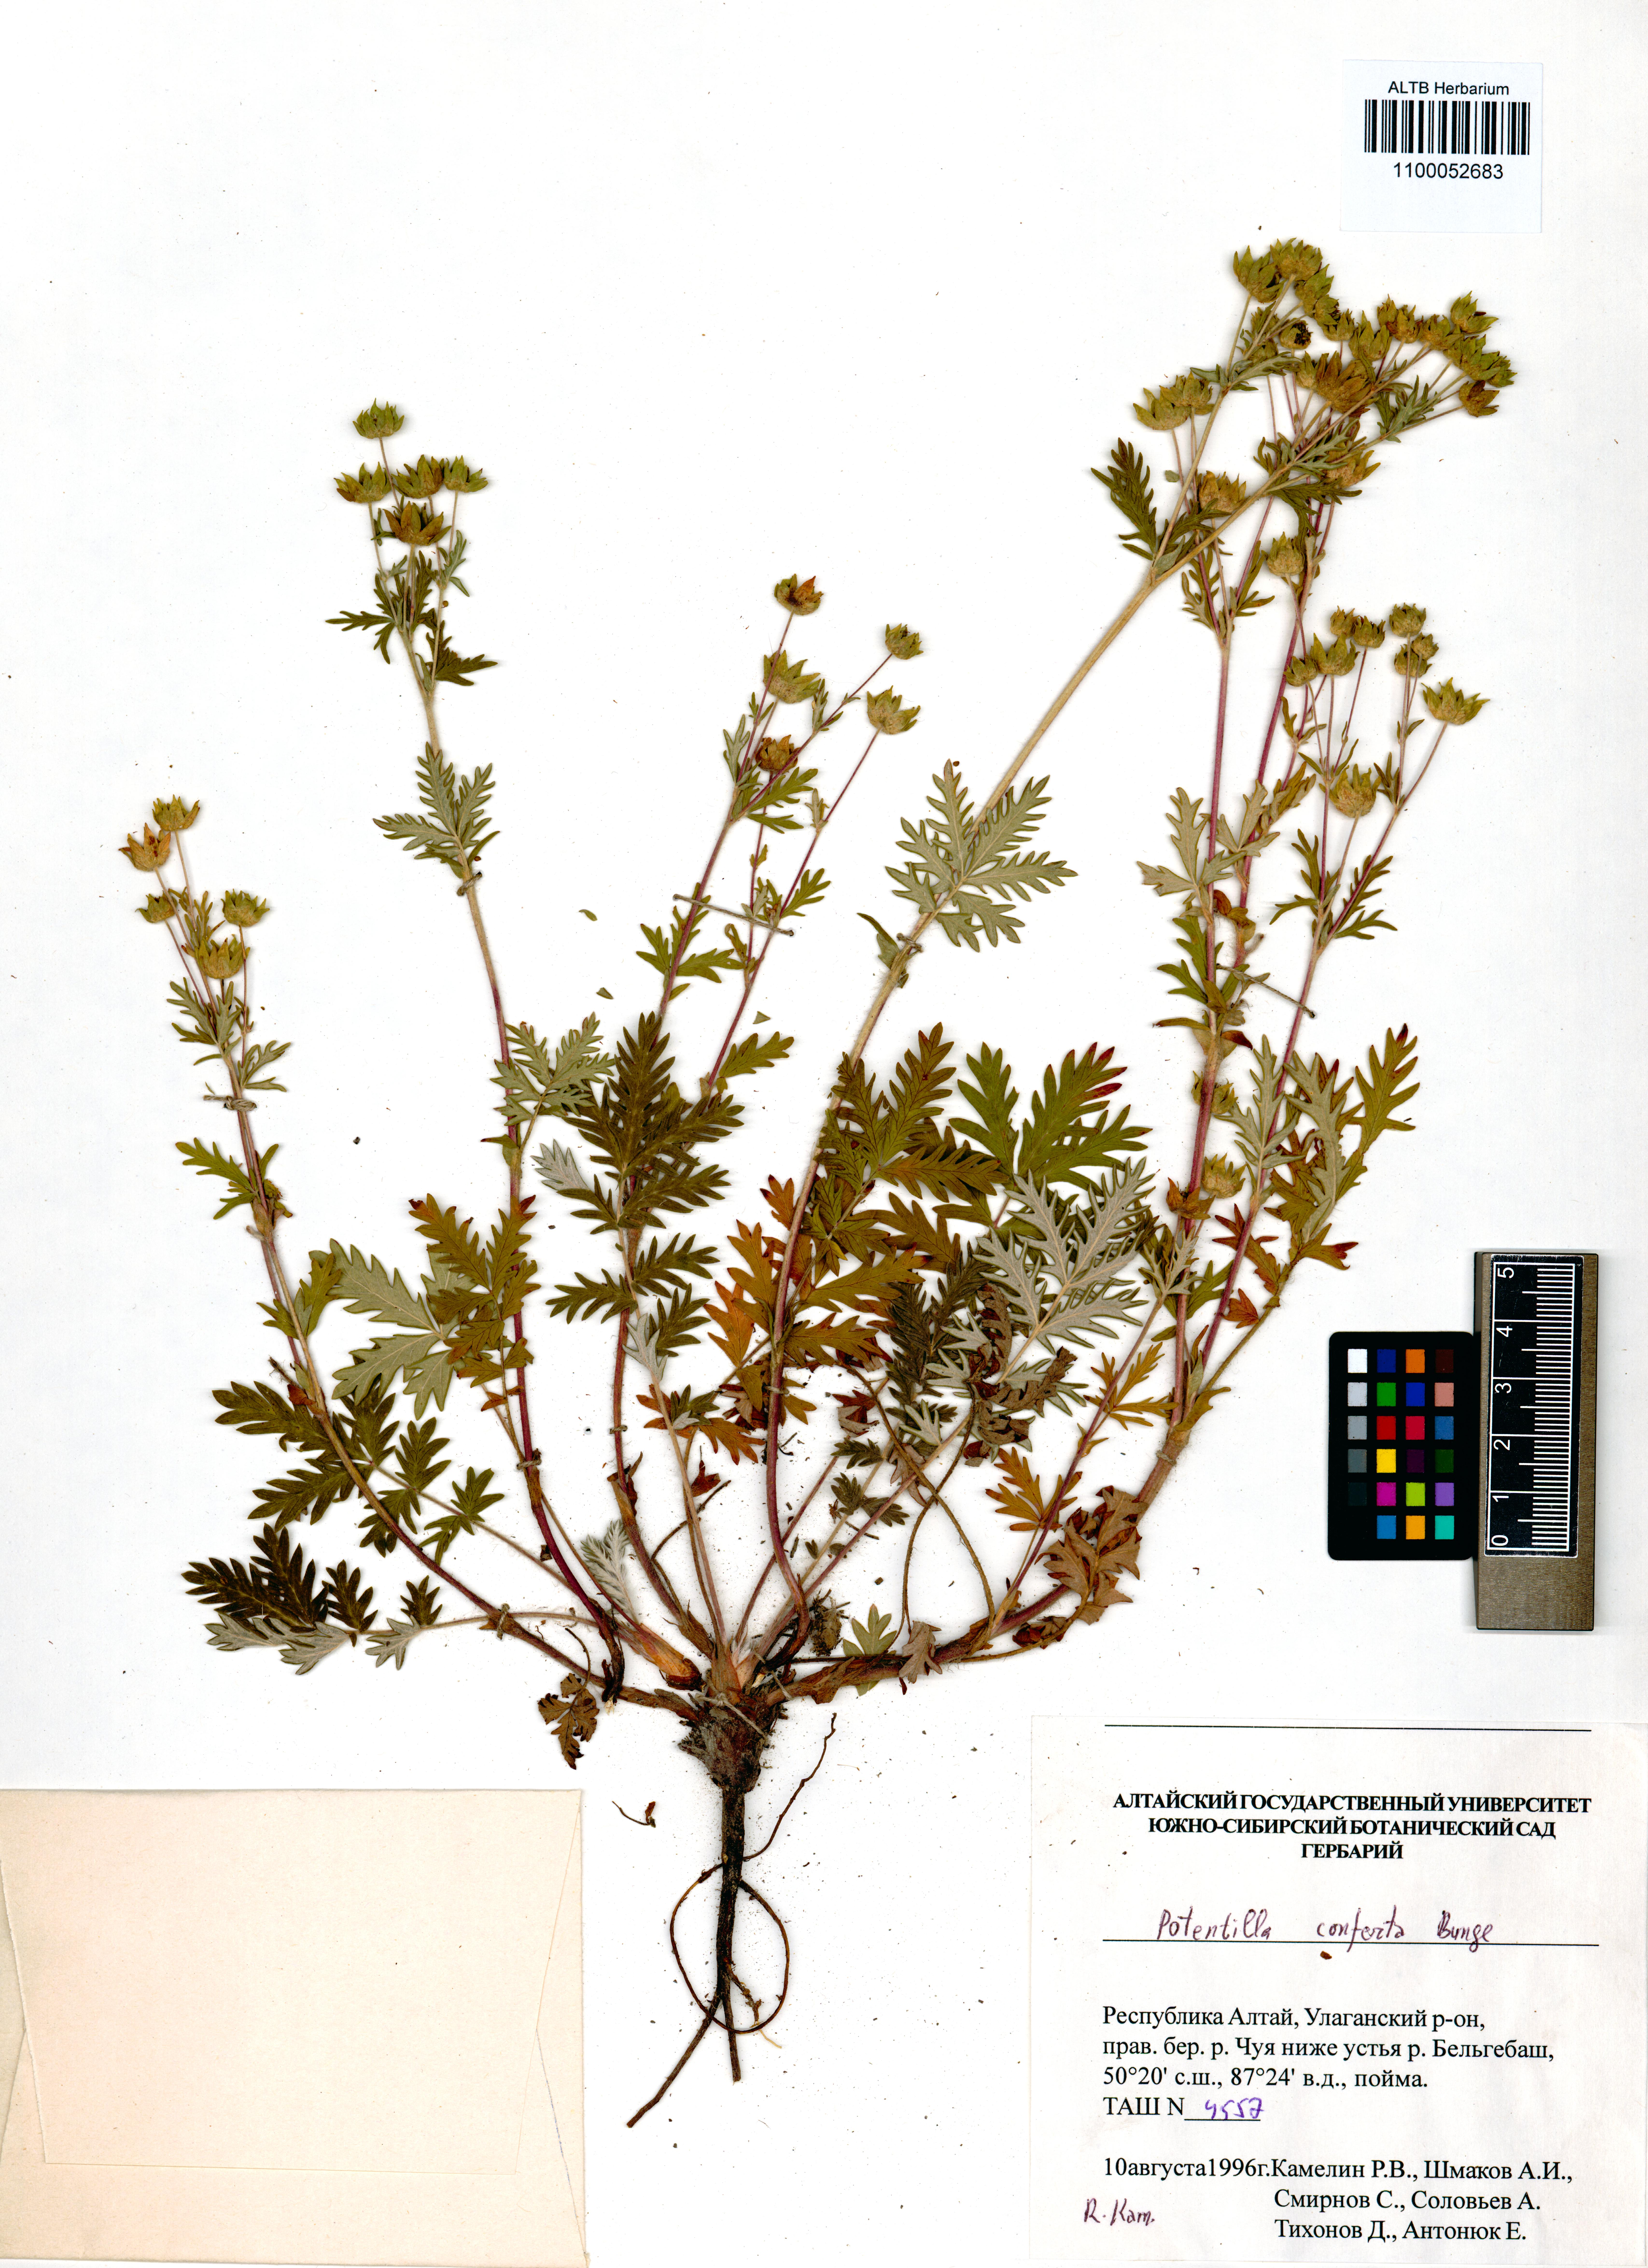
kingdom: Plantae
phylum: Tracheophyta
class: Magnoliopsida
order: Rosales
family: Rosaceae
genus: Potentilla
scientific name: Potentilla conferta
